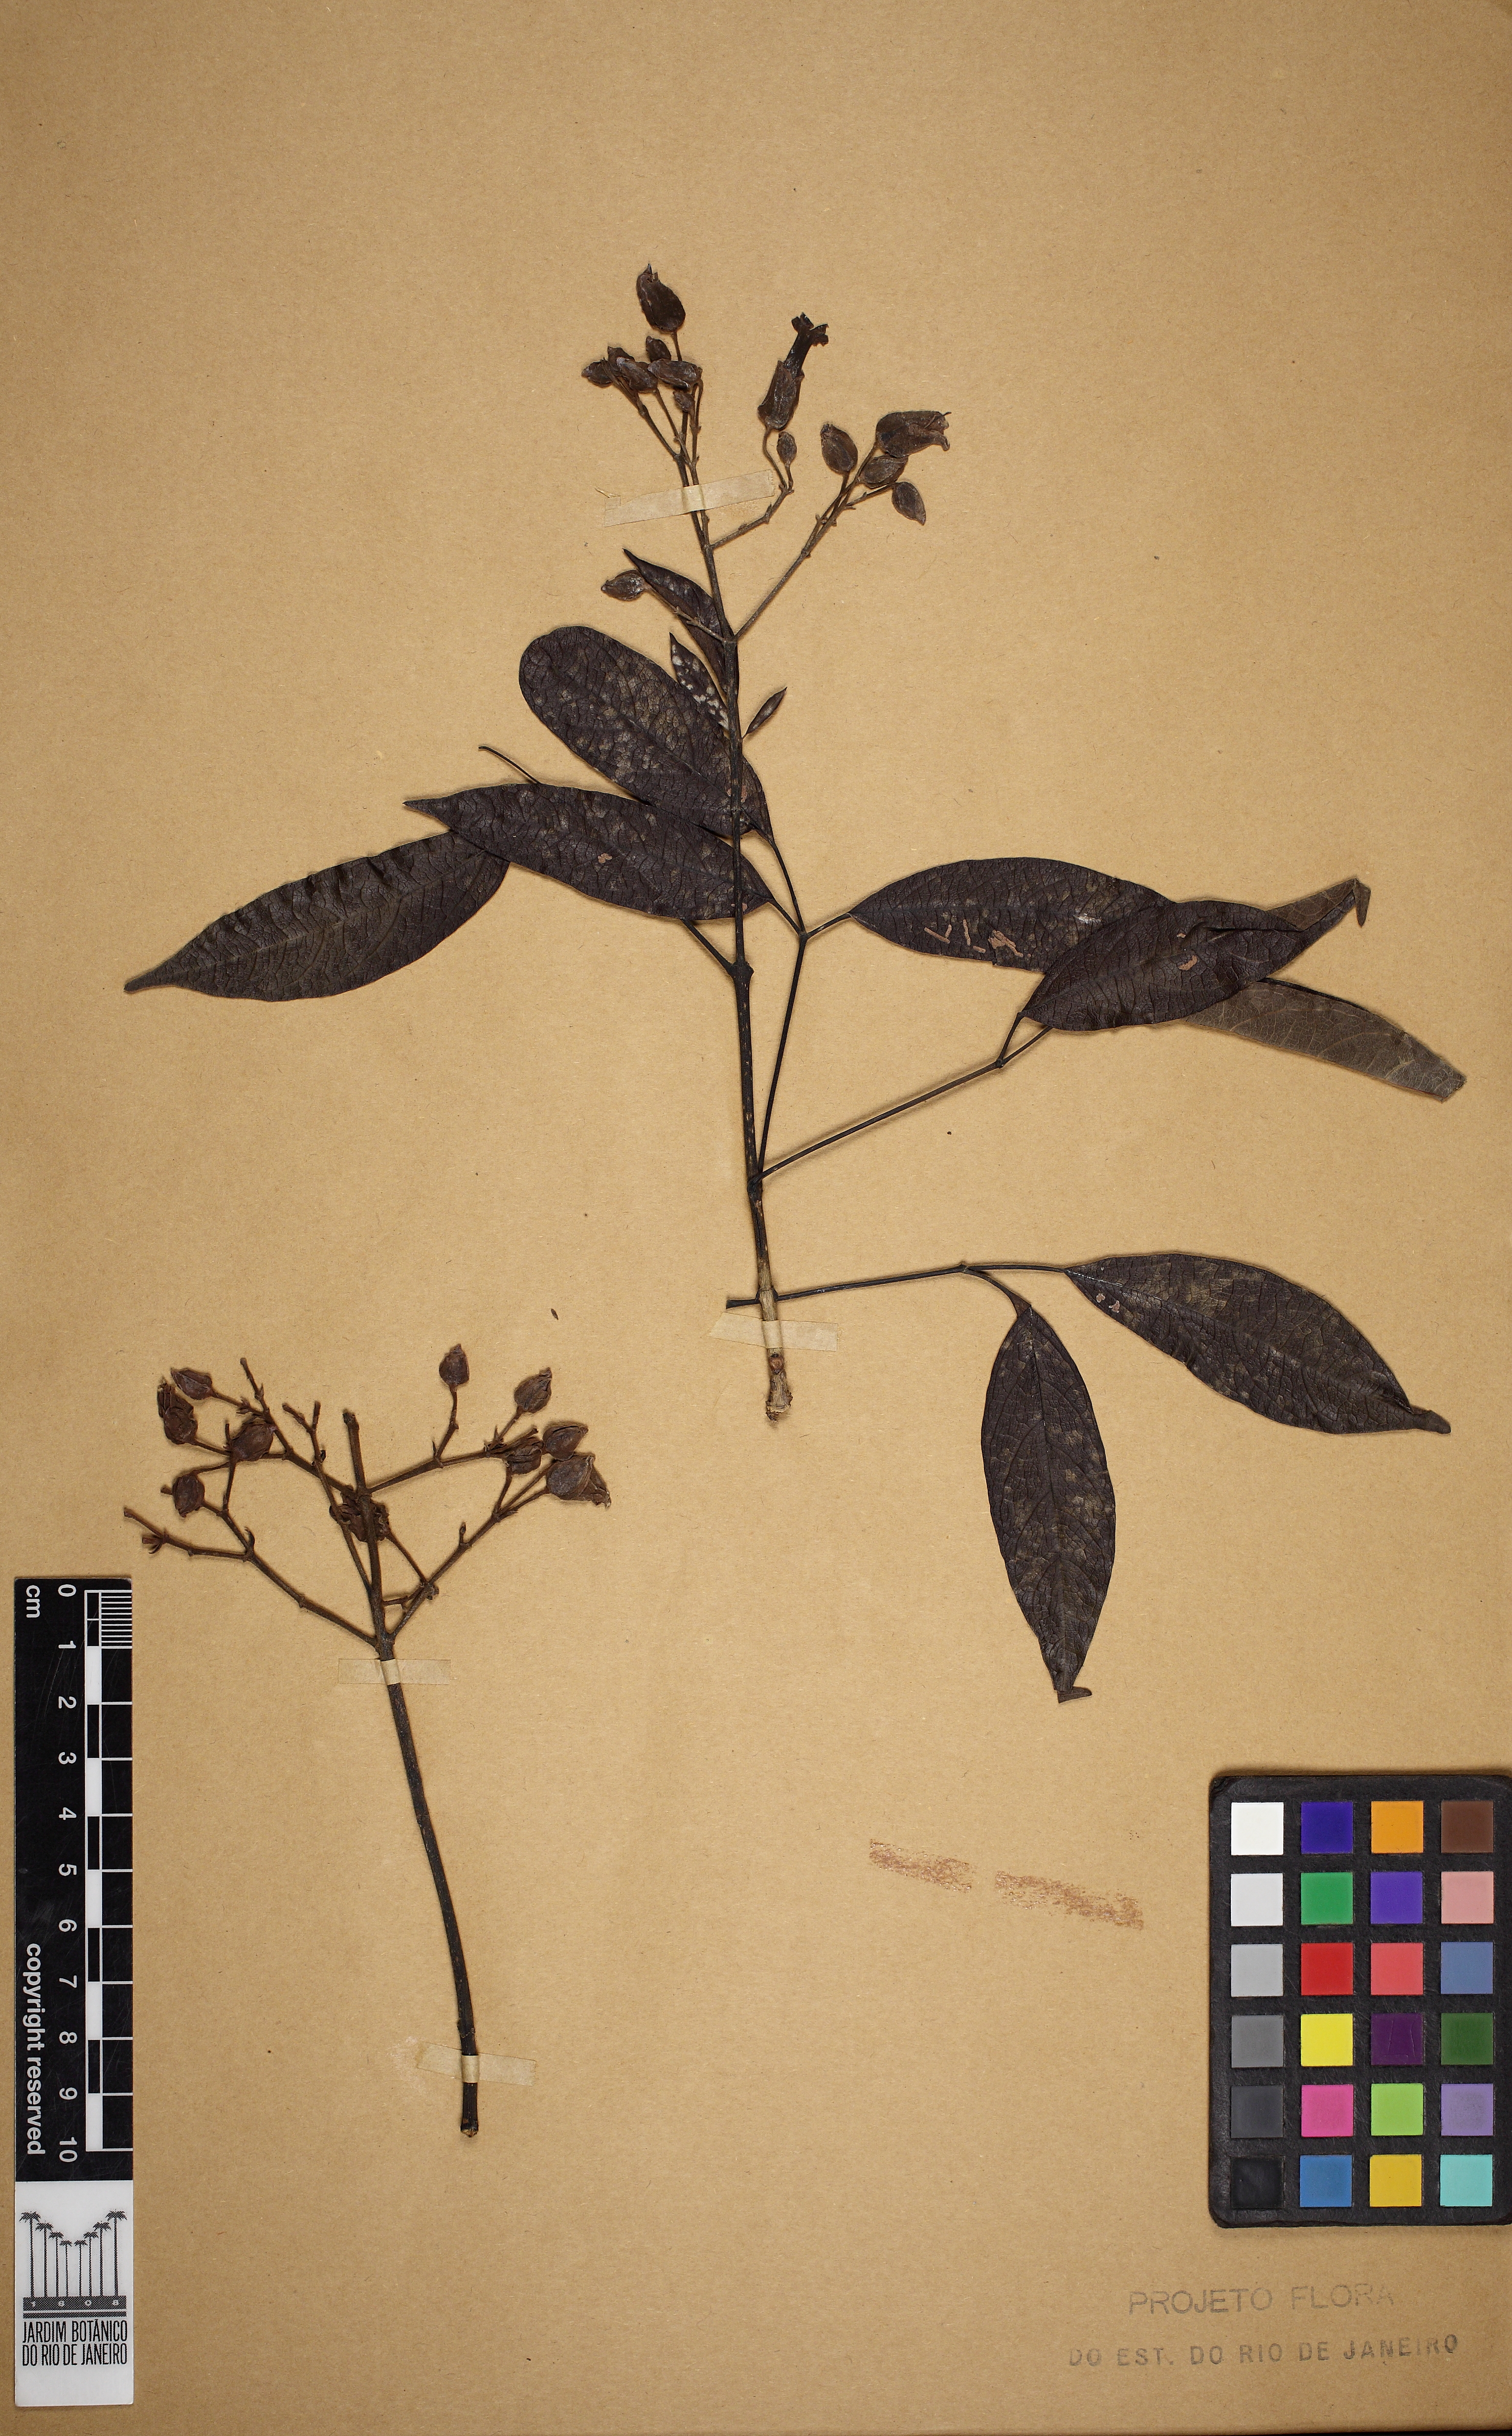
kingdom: Plantae
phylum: Tracheophyta
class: Magnoliopsida
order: Lamiales
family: Bignoniaceae
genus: Fridericia
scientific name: Fridericia speciosa
